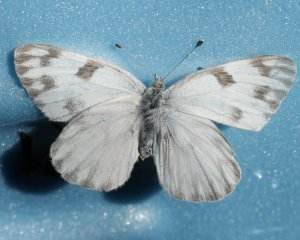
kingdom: Animalia
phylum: Arthropoda
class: Insecta
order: Lepidoptera
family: Pieridae
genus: Pontia
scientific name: Pontia protodice
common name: Checkered White
